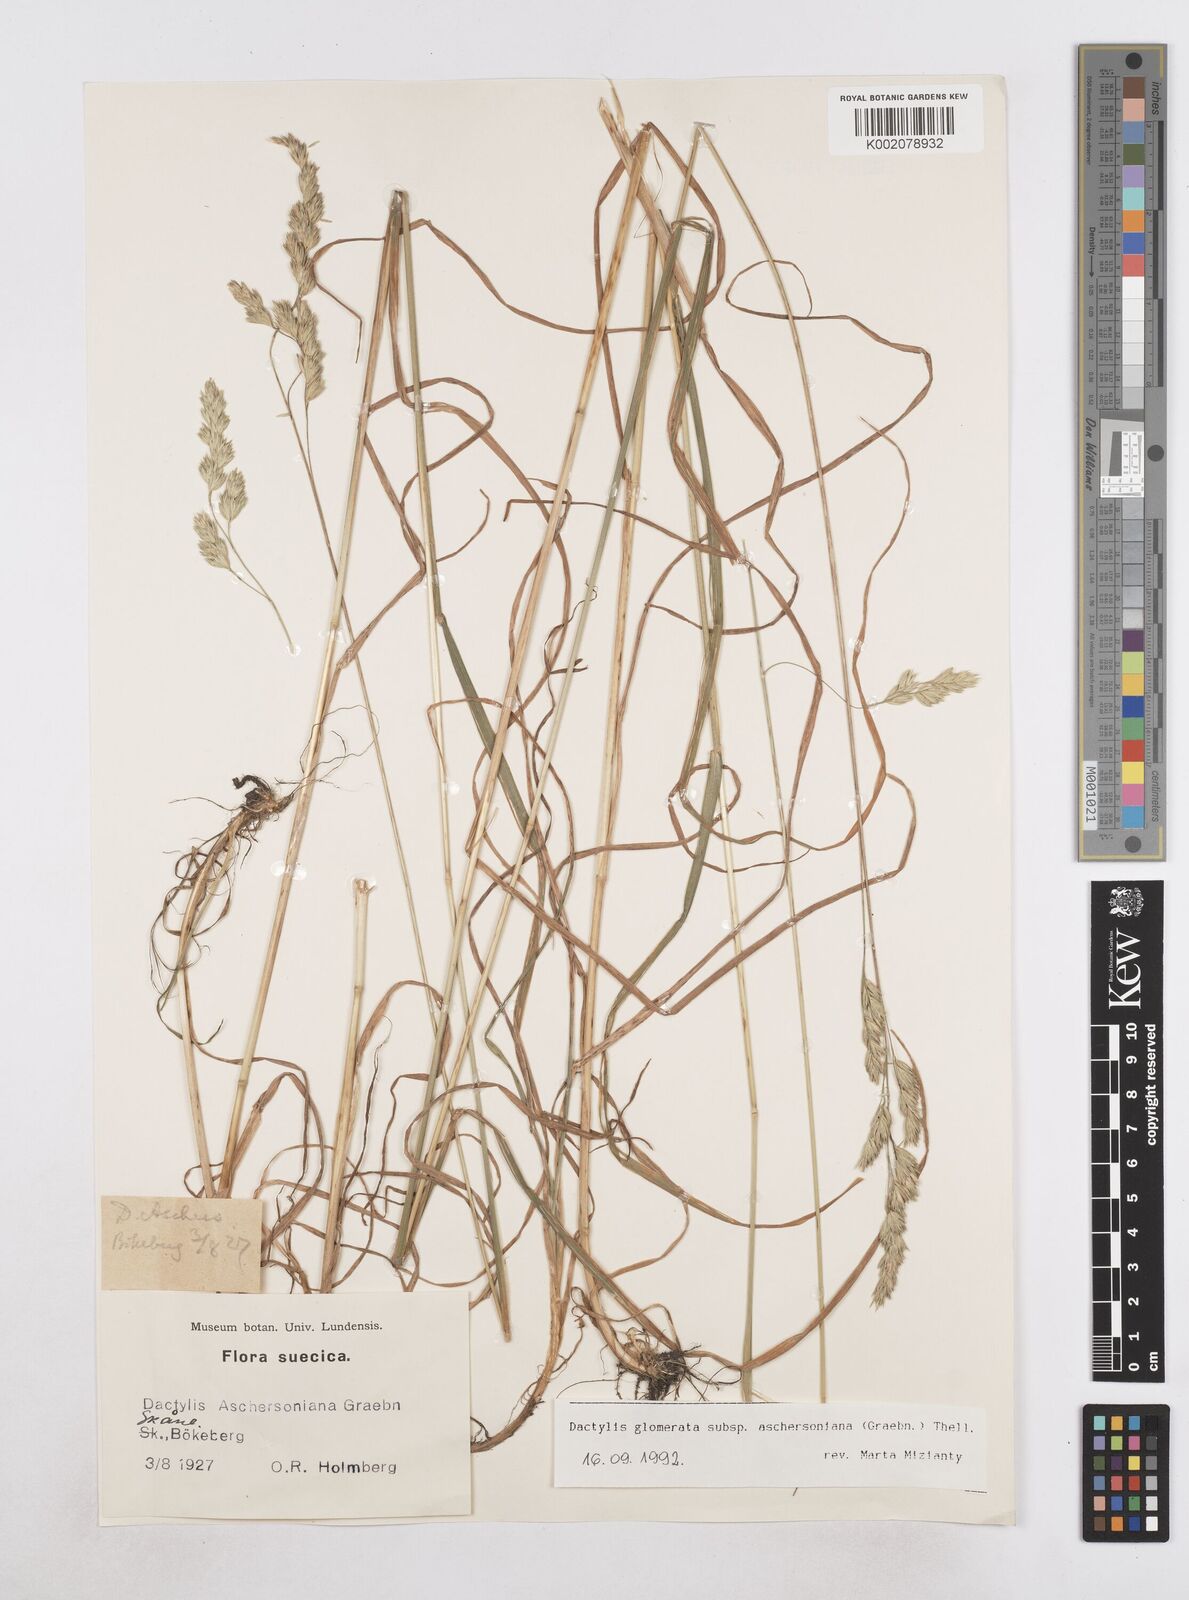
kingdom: Plantae
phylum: Tracheophyta
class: Liliopsida
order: Poales
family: Poaceae
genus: Dactylis
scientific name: Dactylis glomerata
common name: Orchardgrass
